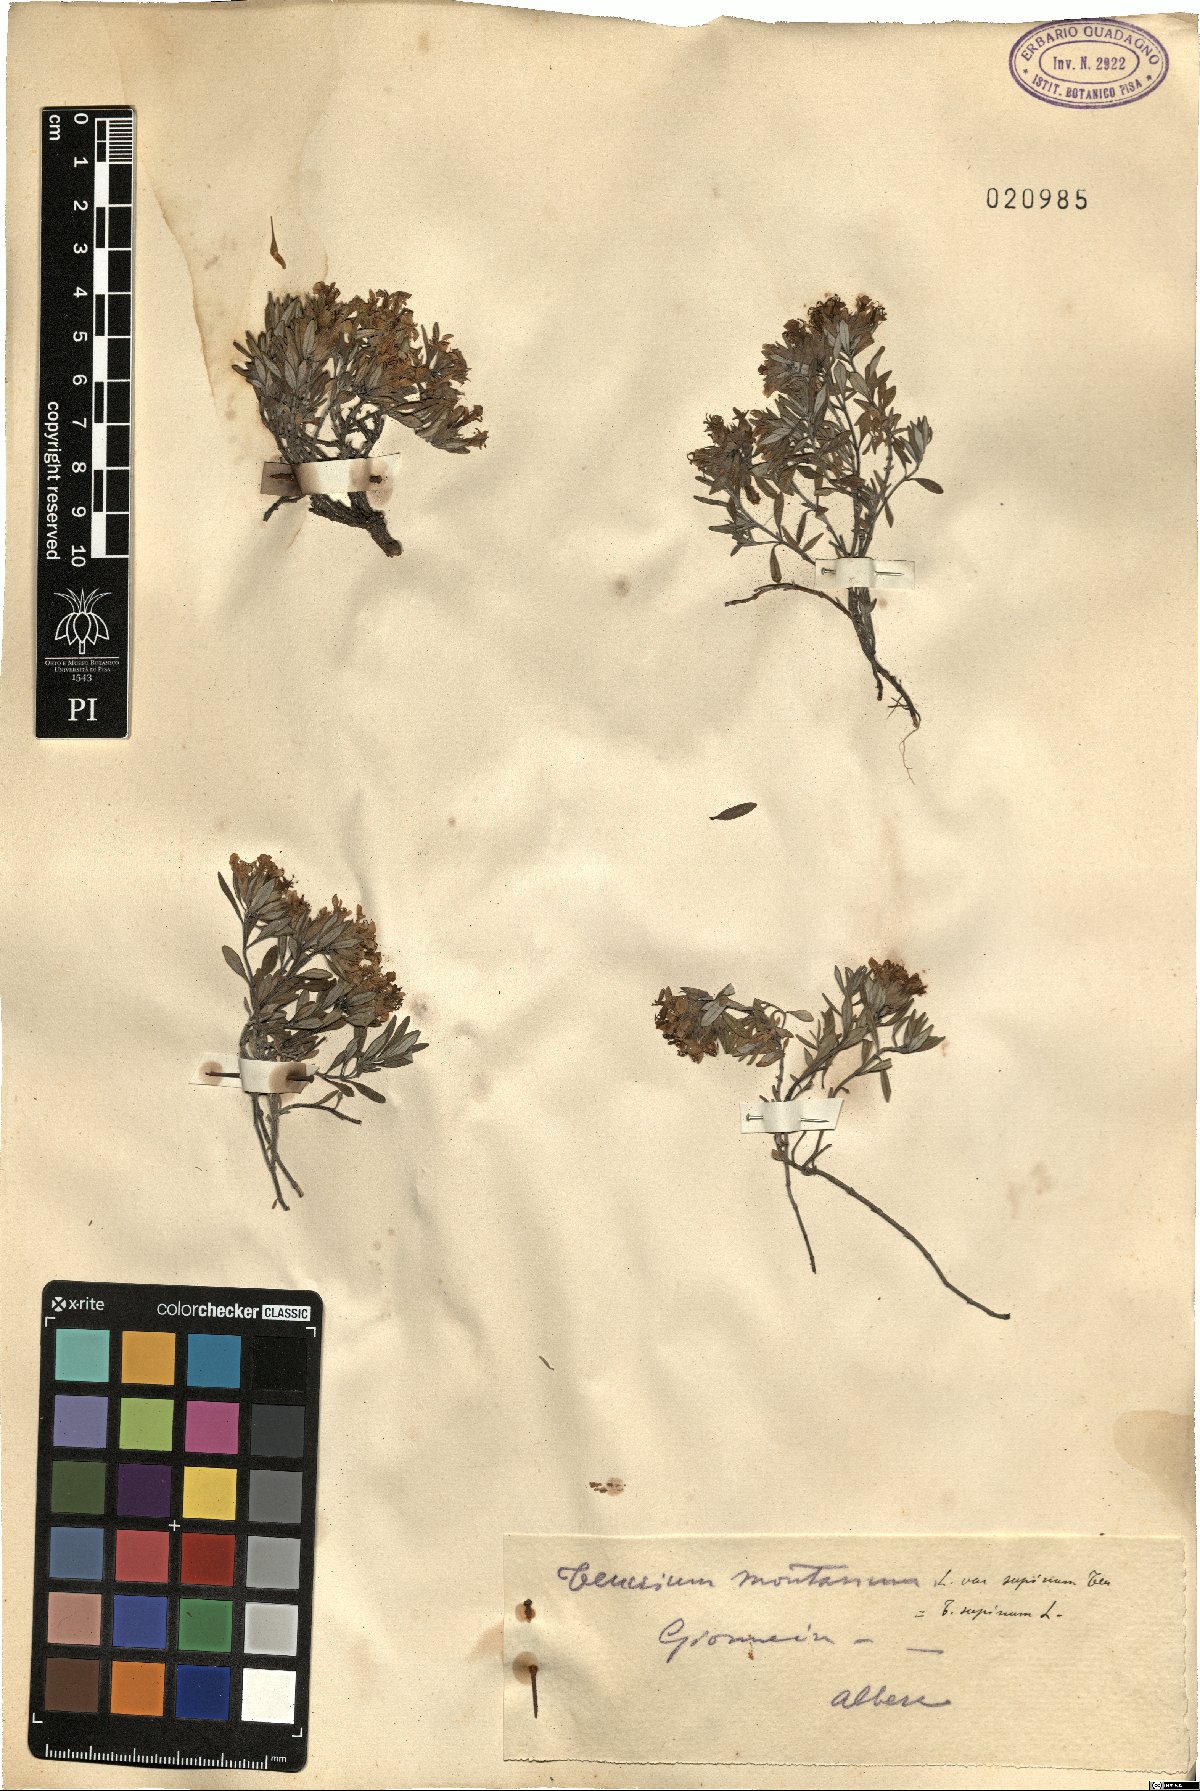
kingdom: Plantae
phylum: Tracheophyta
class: Magnoliopsida
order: Lamiales
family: Lamiaceae
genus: Teucrium
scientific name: Teucrium montanum
